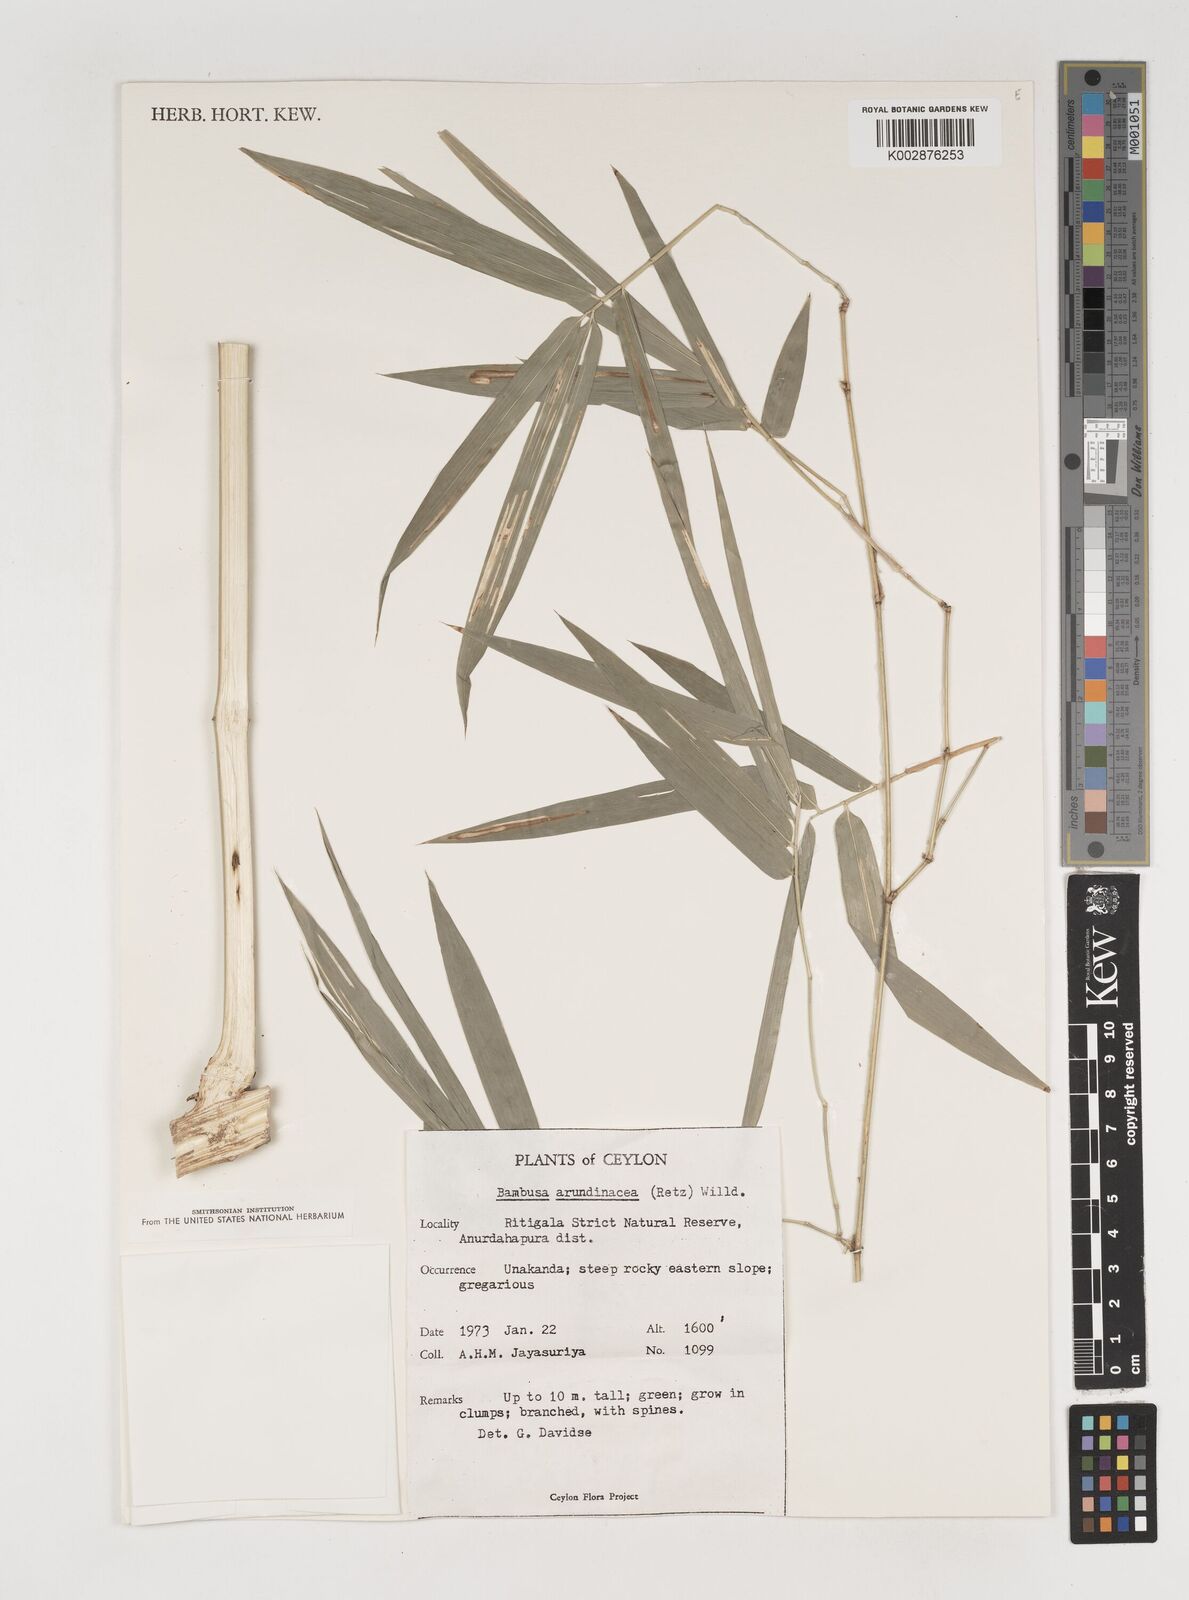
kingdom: Plantae
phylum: Tracheophyta
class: Liliopsida
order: Poales
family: Poaceae
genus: Bambusa
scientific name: Bambusa bambos
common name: Indian thorny bamboo
